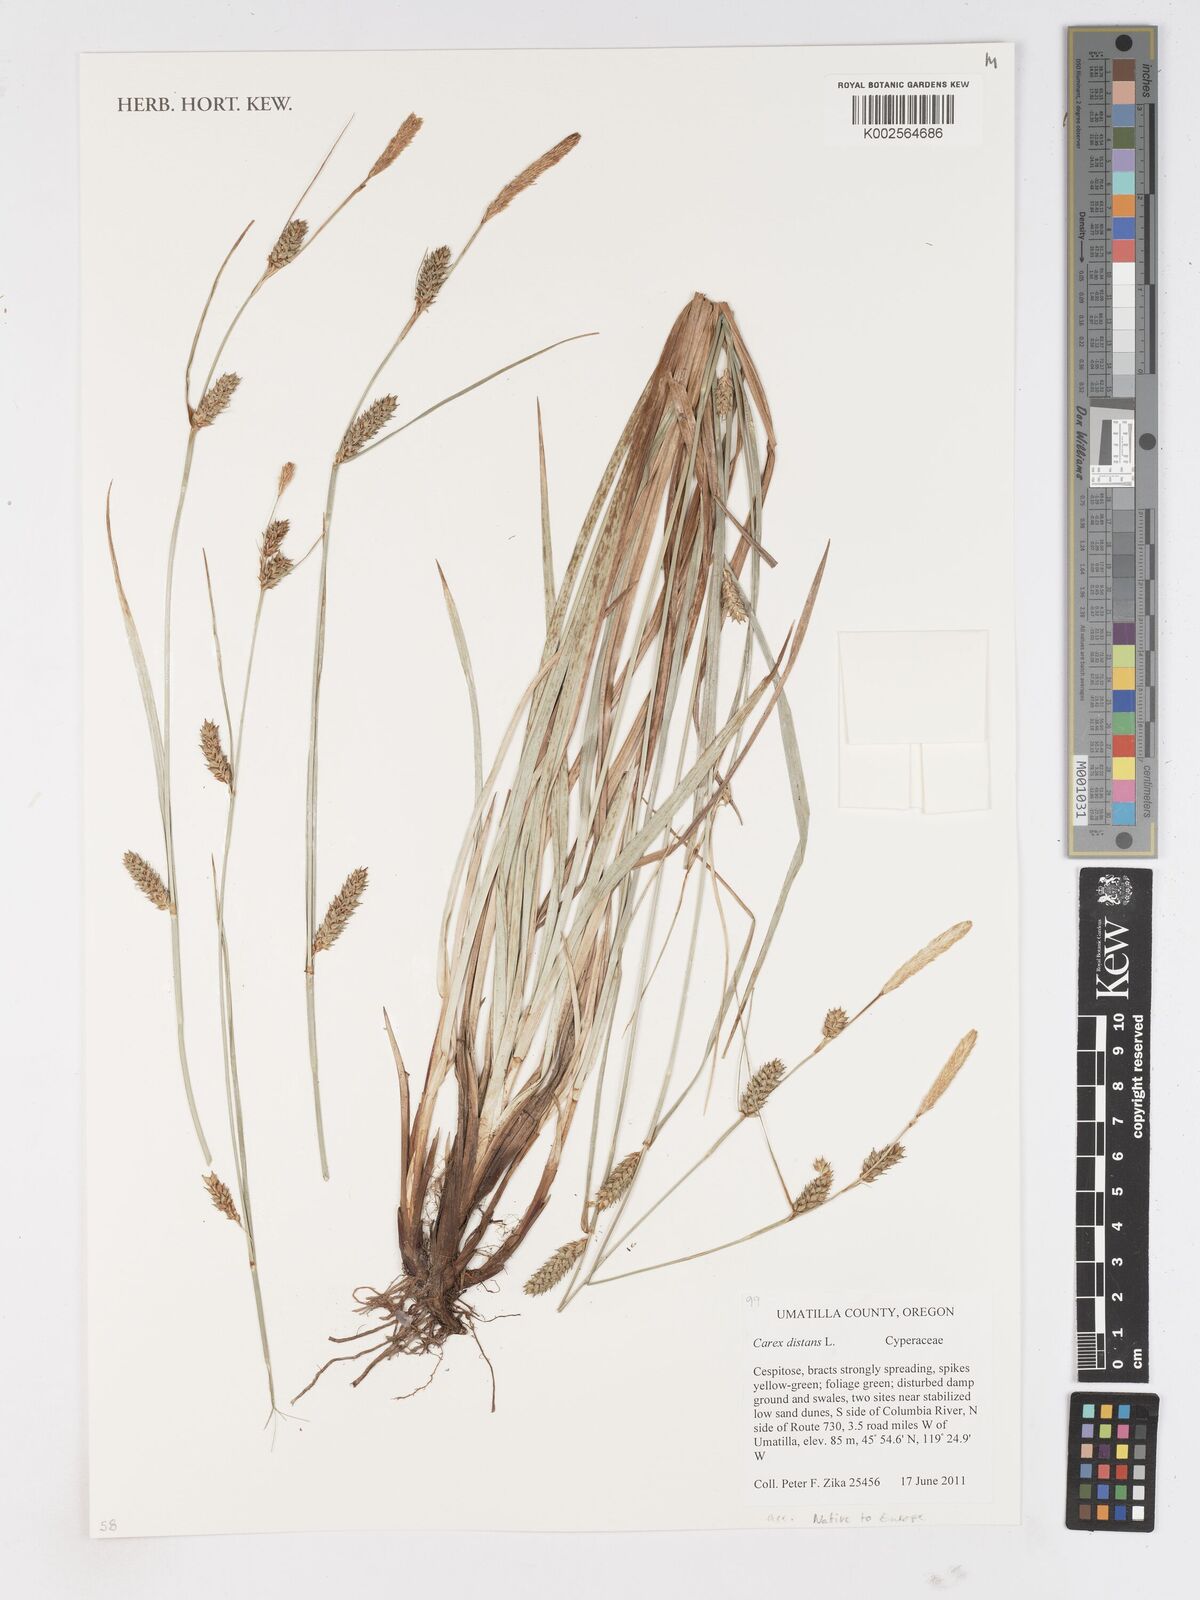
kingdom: Plantae
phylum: Tracheophyta
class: Liliopsida
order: Poales
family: Cyperaceae
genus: Carex
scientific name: Carex distans
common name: Distant sedge
